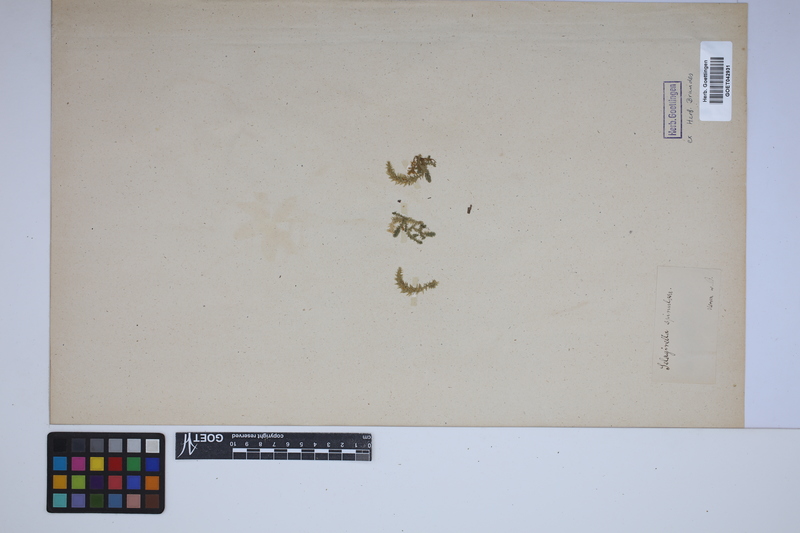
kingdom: Plantae
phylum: Tracheophyta
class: Lycopodiopsida
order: Selaginellales
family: Selaginellaceae
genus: Selaginella
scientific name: Selaginella selaginoides
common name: Prickly mountain-moss
